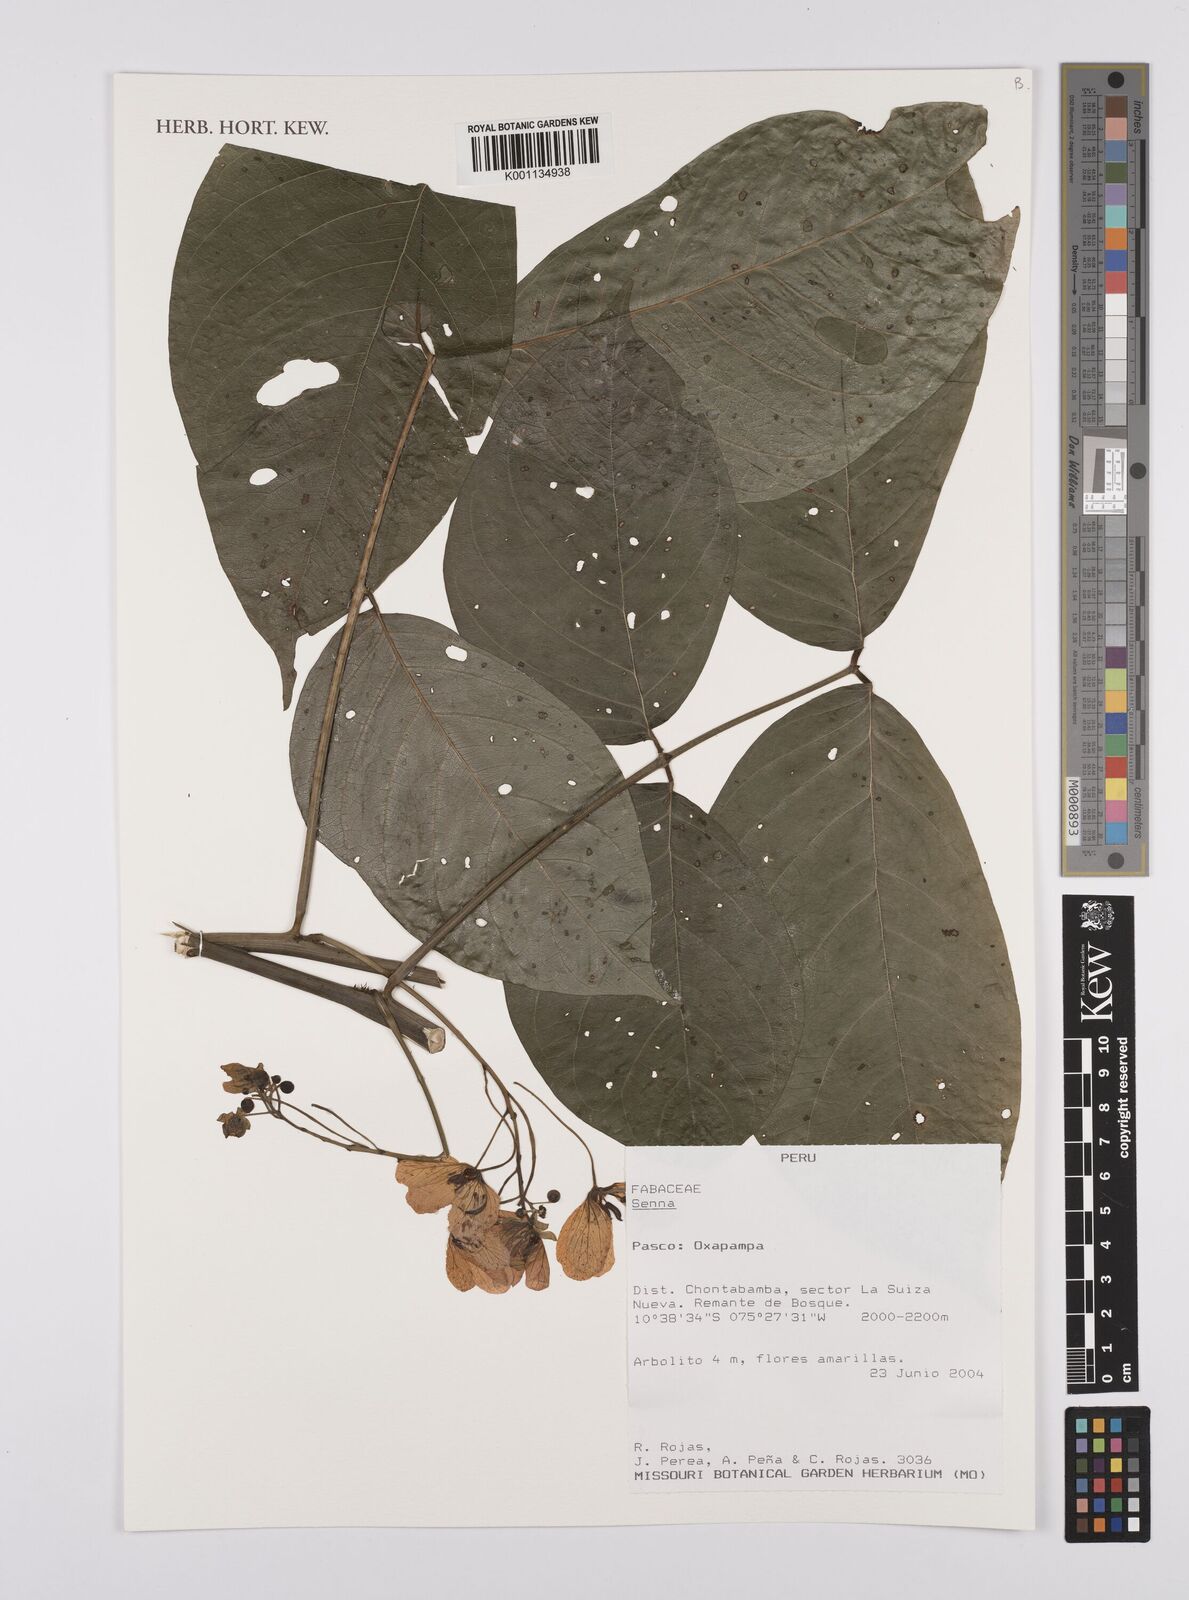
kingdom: Plantae
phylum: Tracheophyta
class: Magnoliopsida
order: Fabales
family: Fabaceae
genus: Senna
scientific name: Senna
